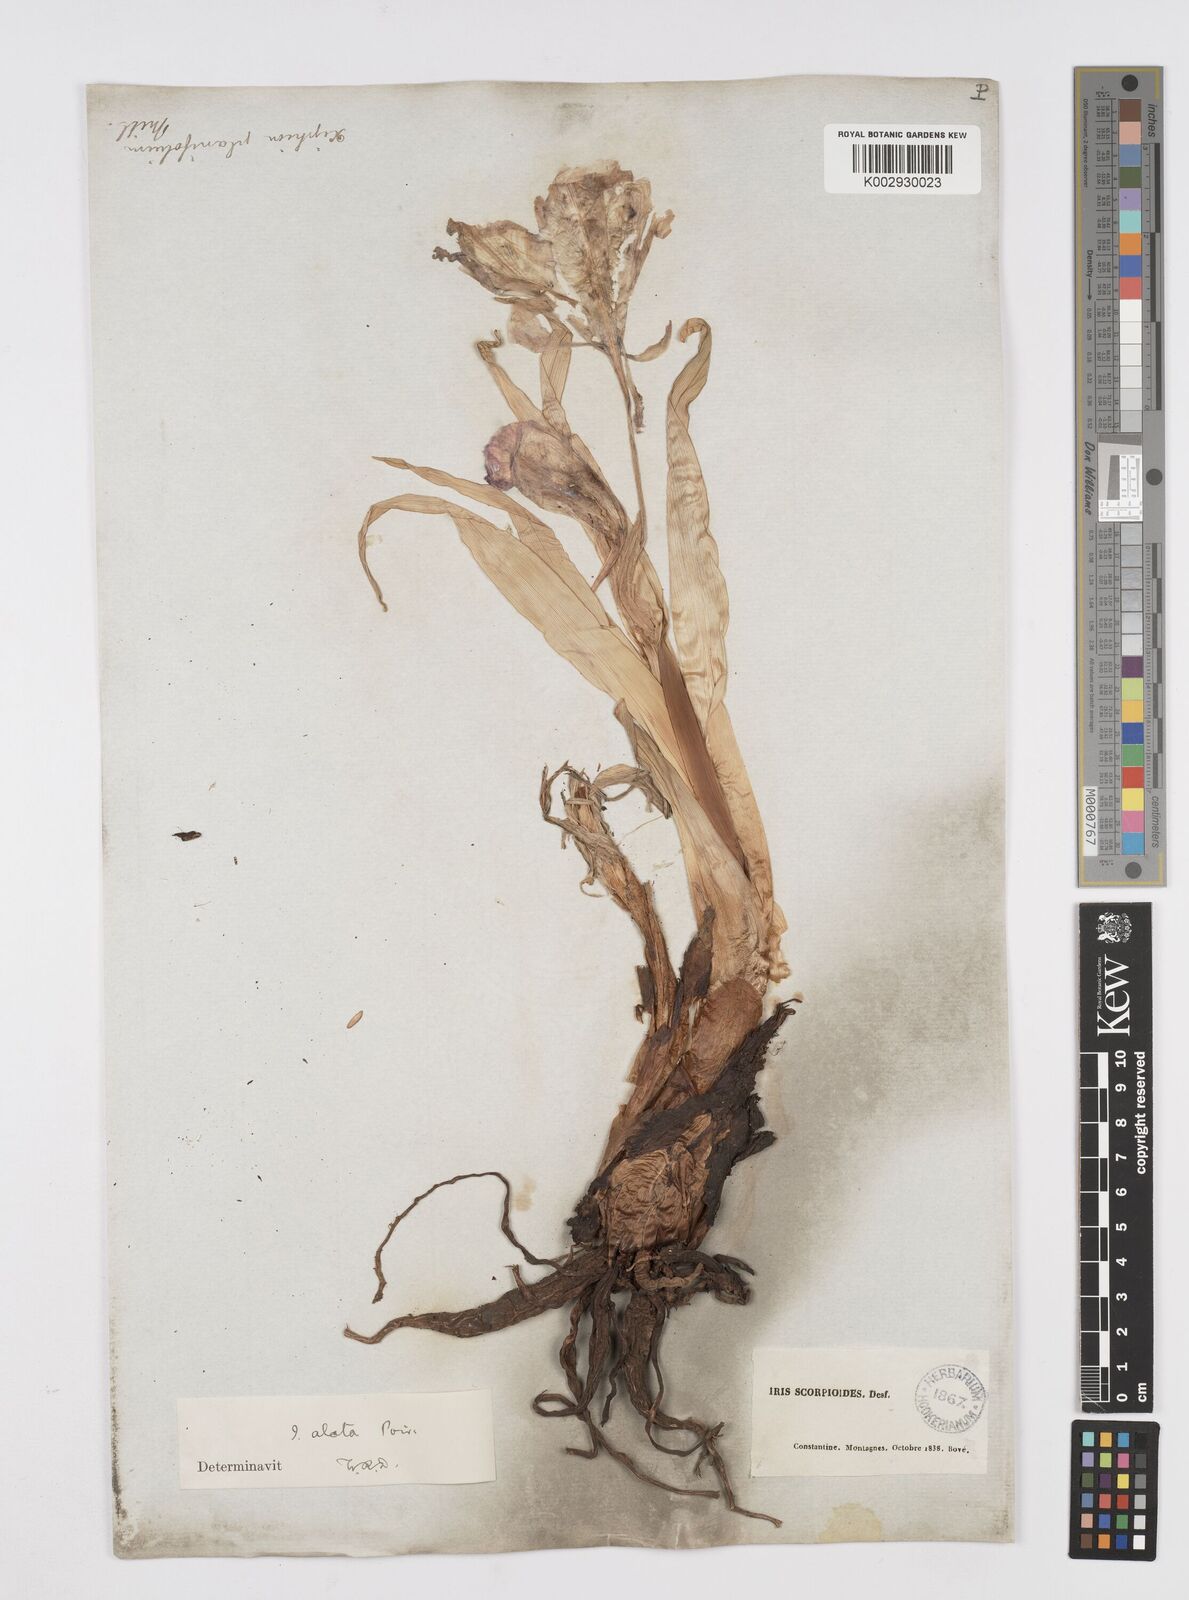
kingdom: Plantae
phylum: Tracheophyta
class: Liliopsida
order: Asparagales
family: Iridaceae
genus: Iris
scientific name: Iris planifolia
